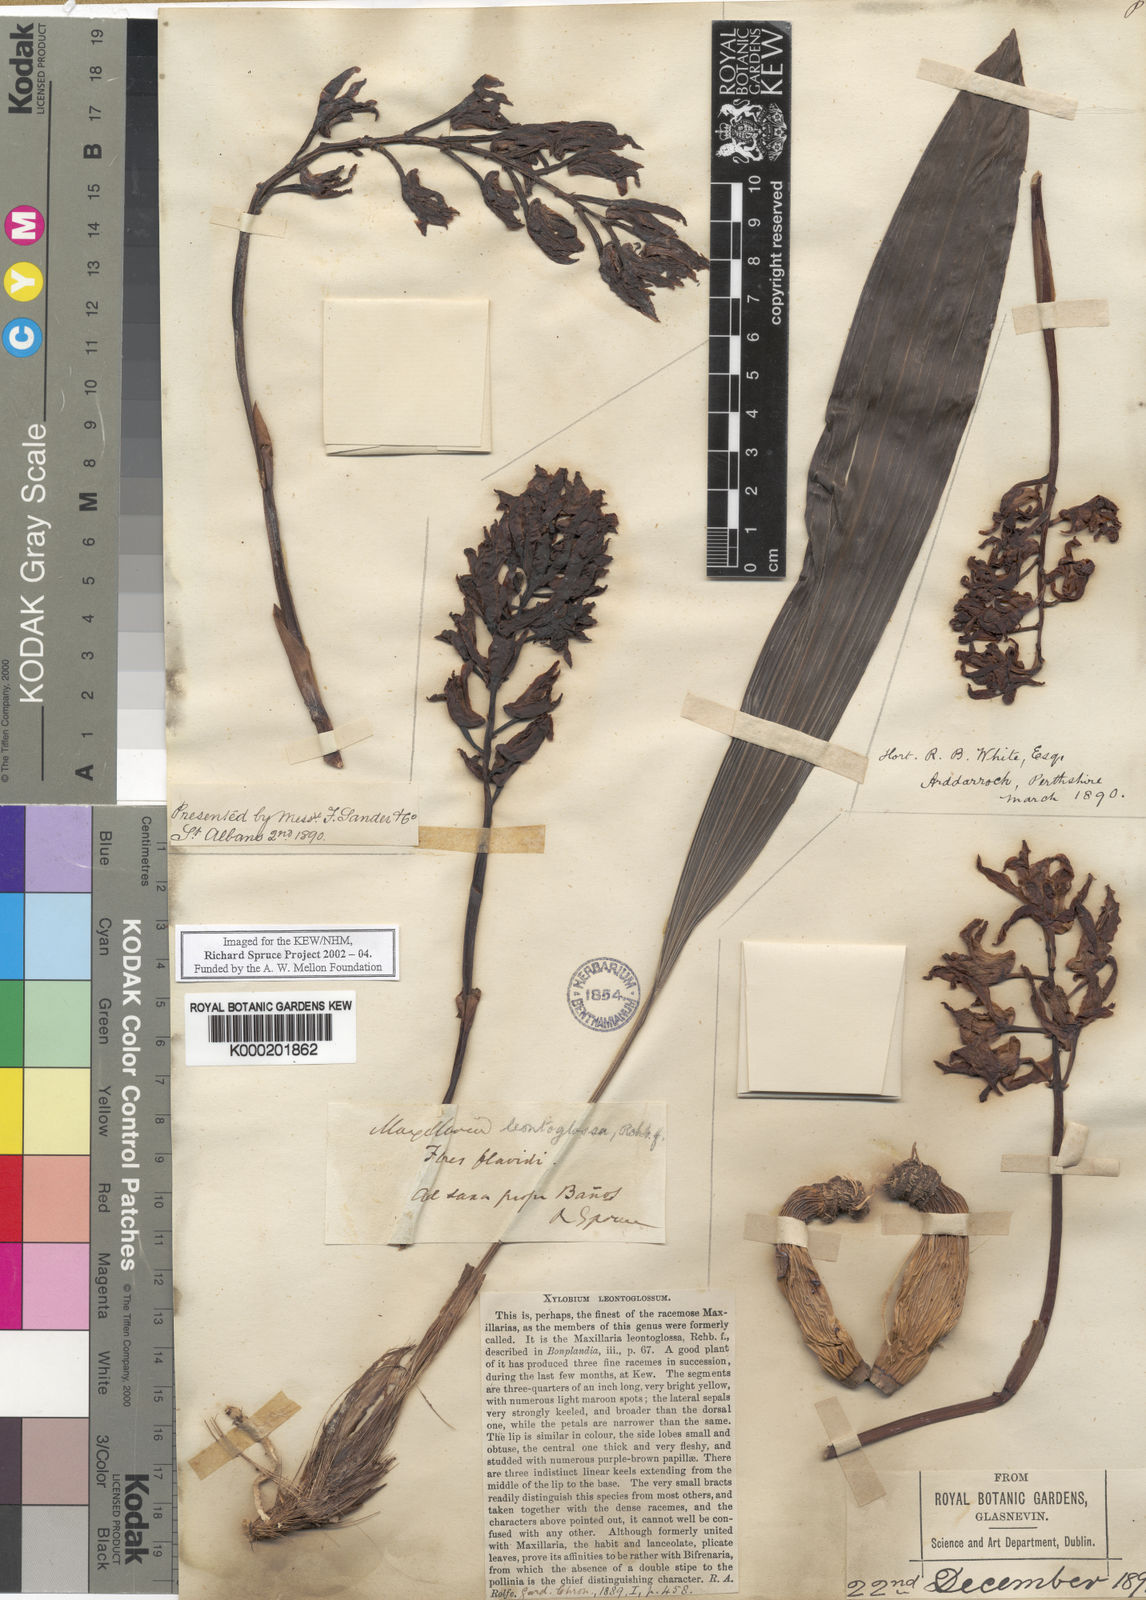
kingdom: Plantae
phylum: Tracheophyta
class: Liliopsida
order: Asparagales
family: Orchidaceae
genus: Xylobium
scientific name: Xylobium leontoglossum
